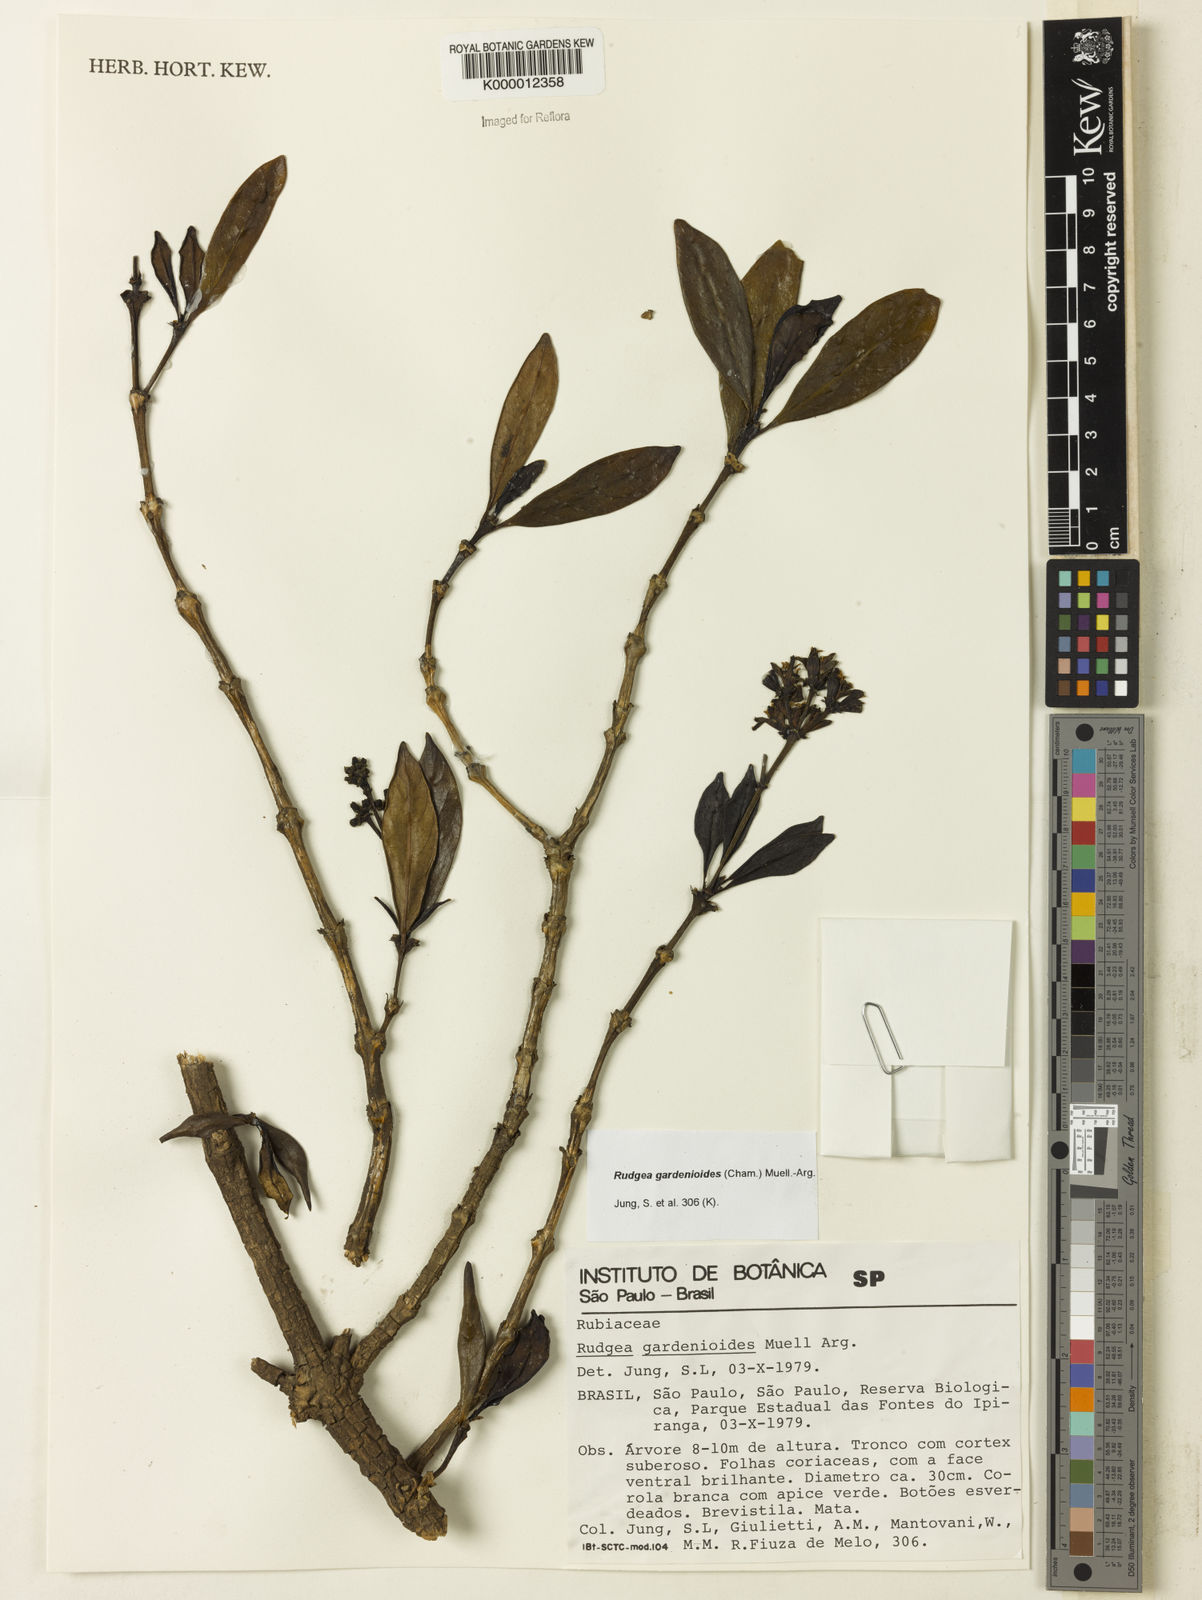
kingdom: Plantae
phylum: Tracheophyta
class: Magnoliopsida
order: Gentianales
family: Rubiaceae
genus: Rudgea
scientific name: Rudgea gardenioides
